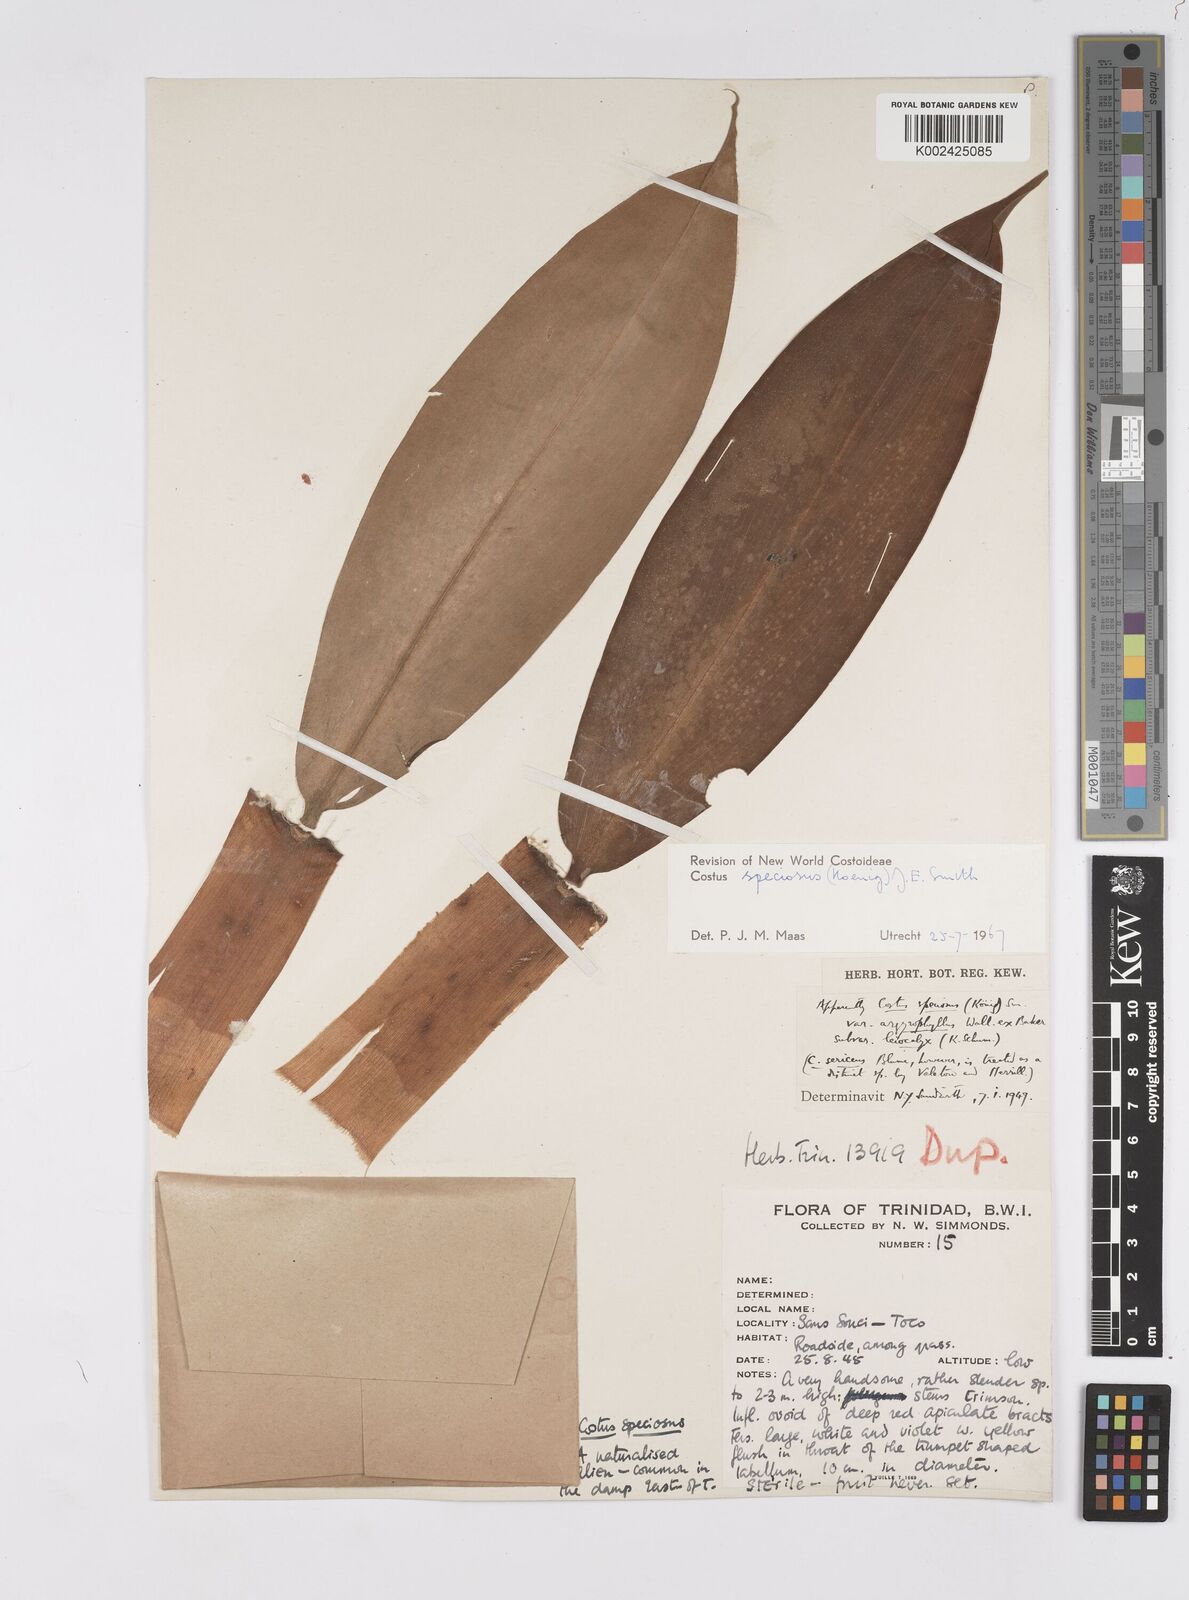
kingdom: Plantae
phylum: Tracheophyta
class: Liliopsida
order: Zingiberales
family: Costaceae
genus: Hellenia
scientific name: Hellenia speciosa
